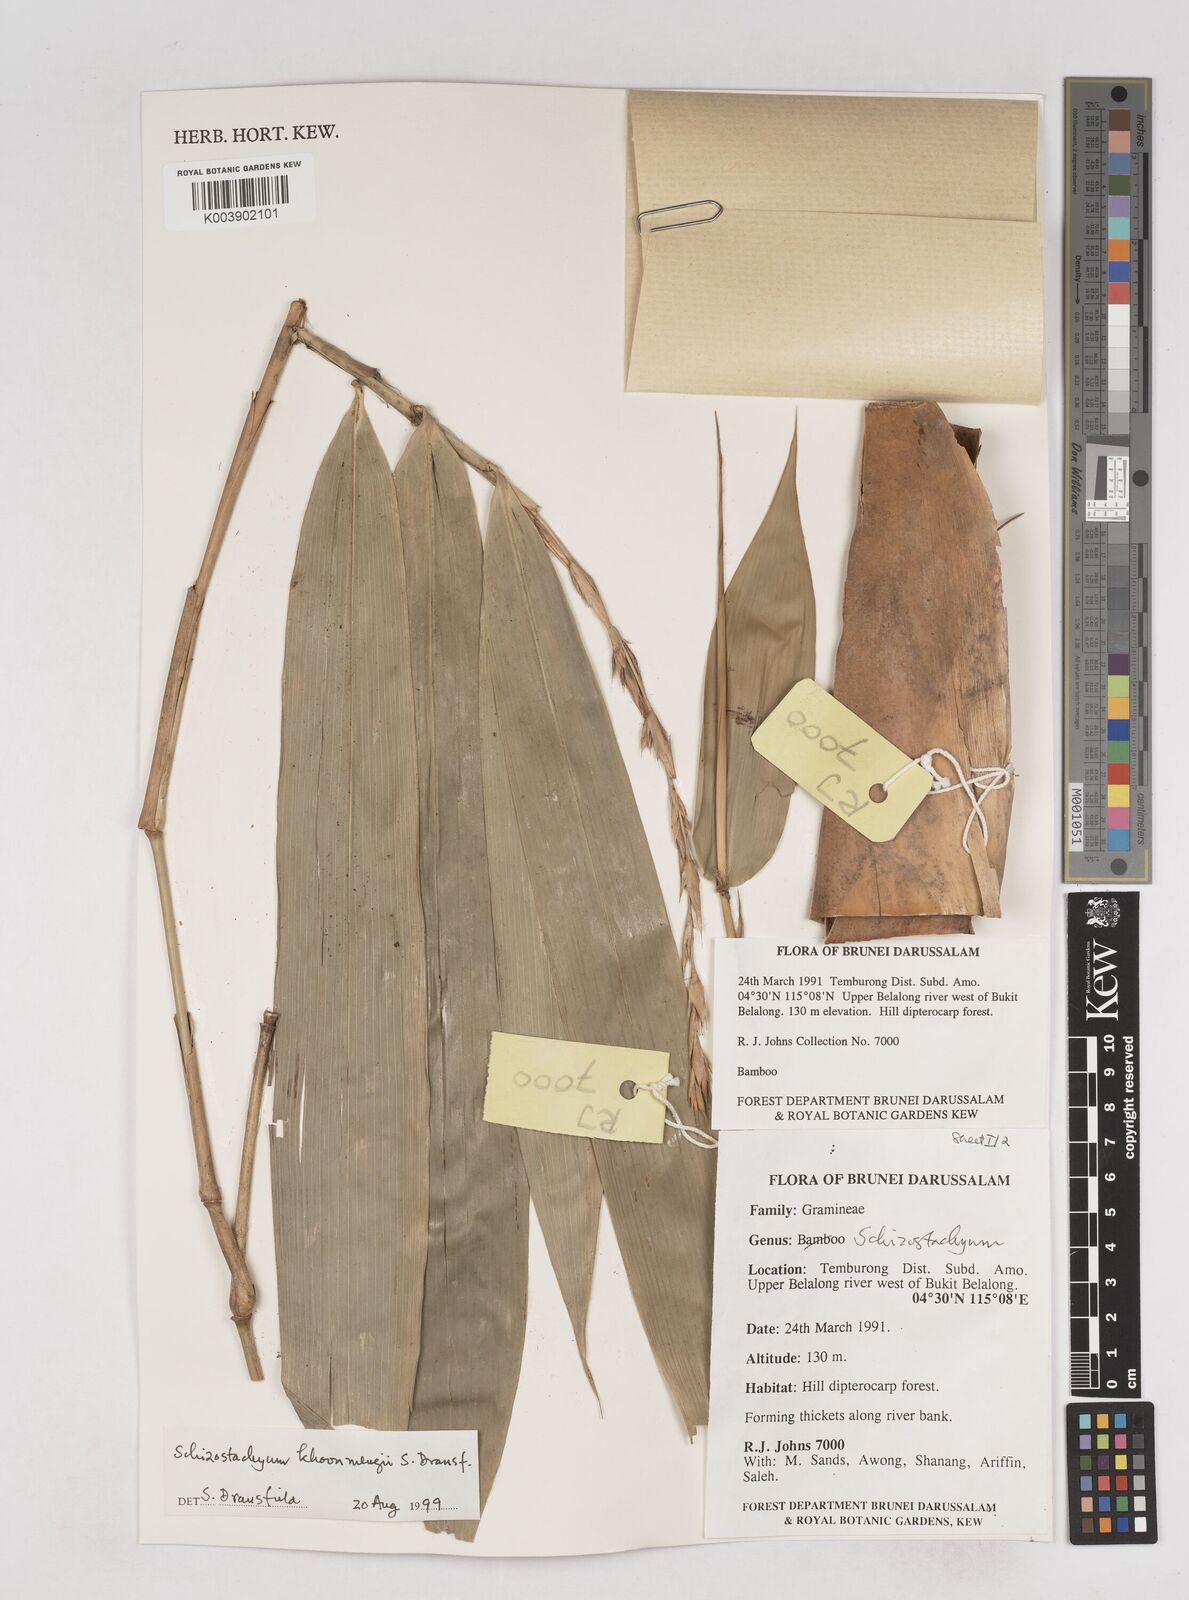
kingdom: Plantae
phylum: Tracheophyta
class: Liliopsida
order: Poales
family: Poaceae
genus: Schizostachyum
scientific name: Schizostachyum khoonmengii
